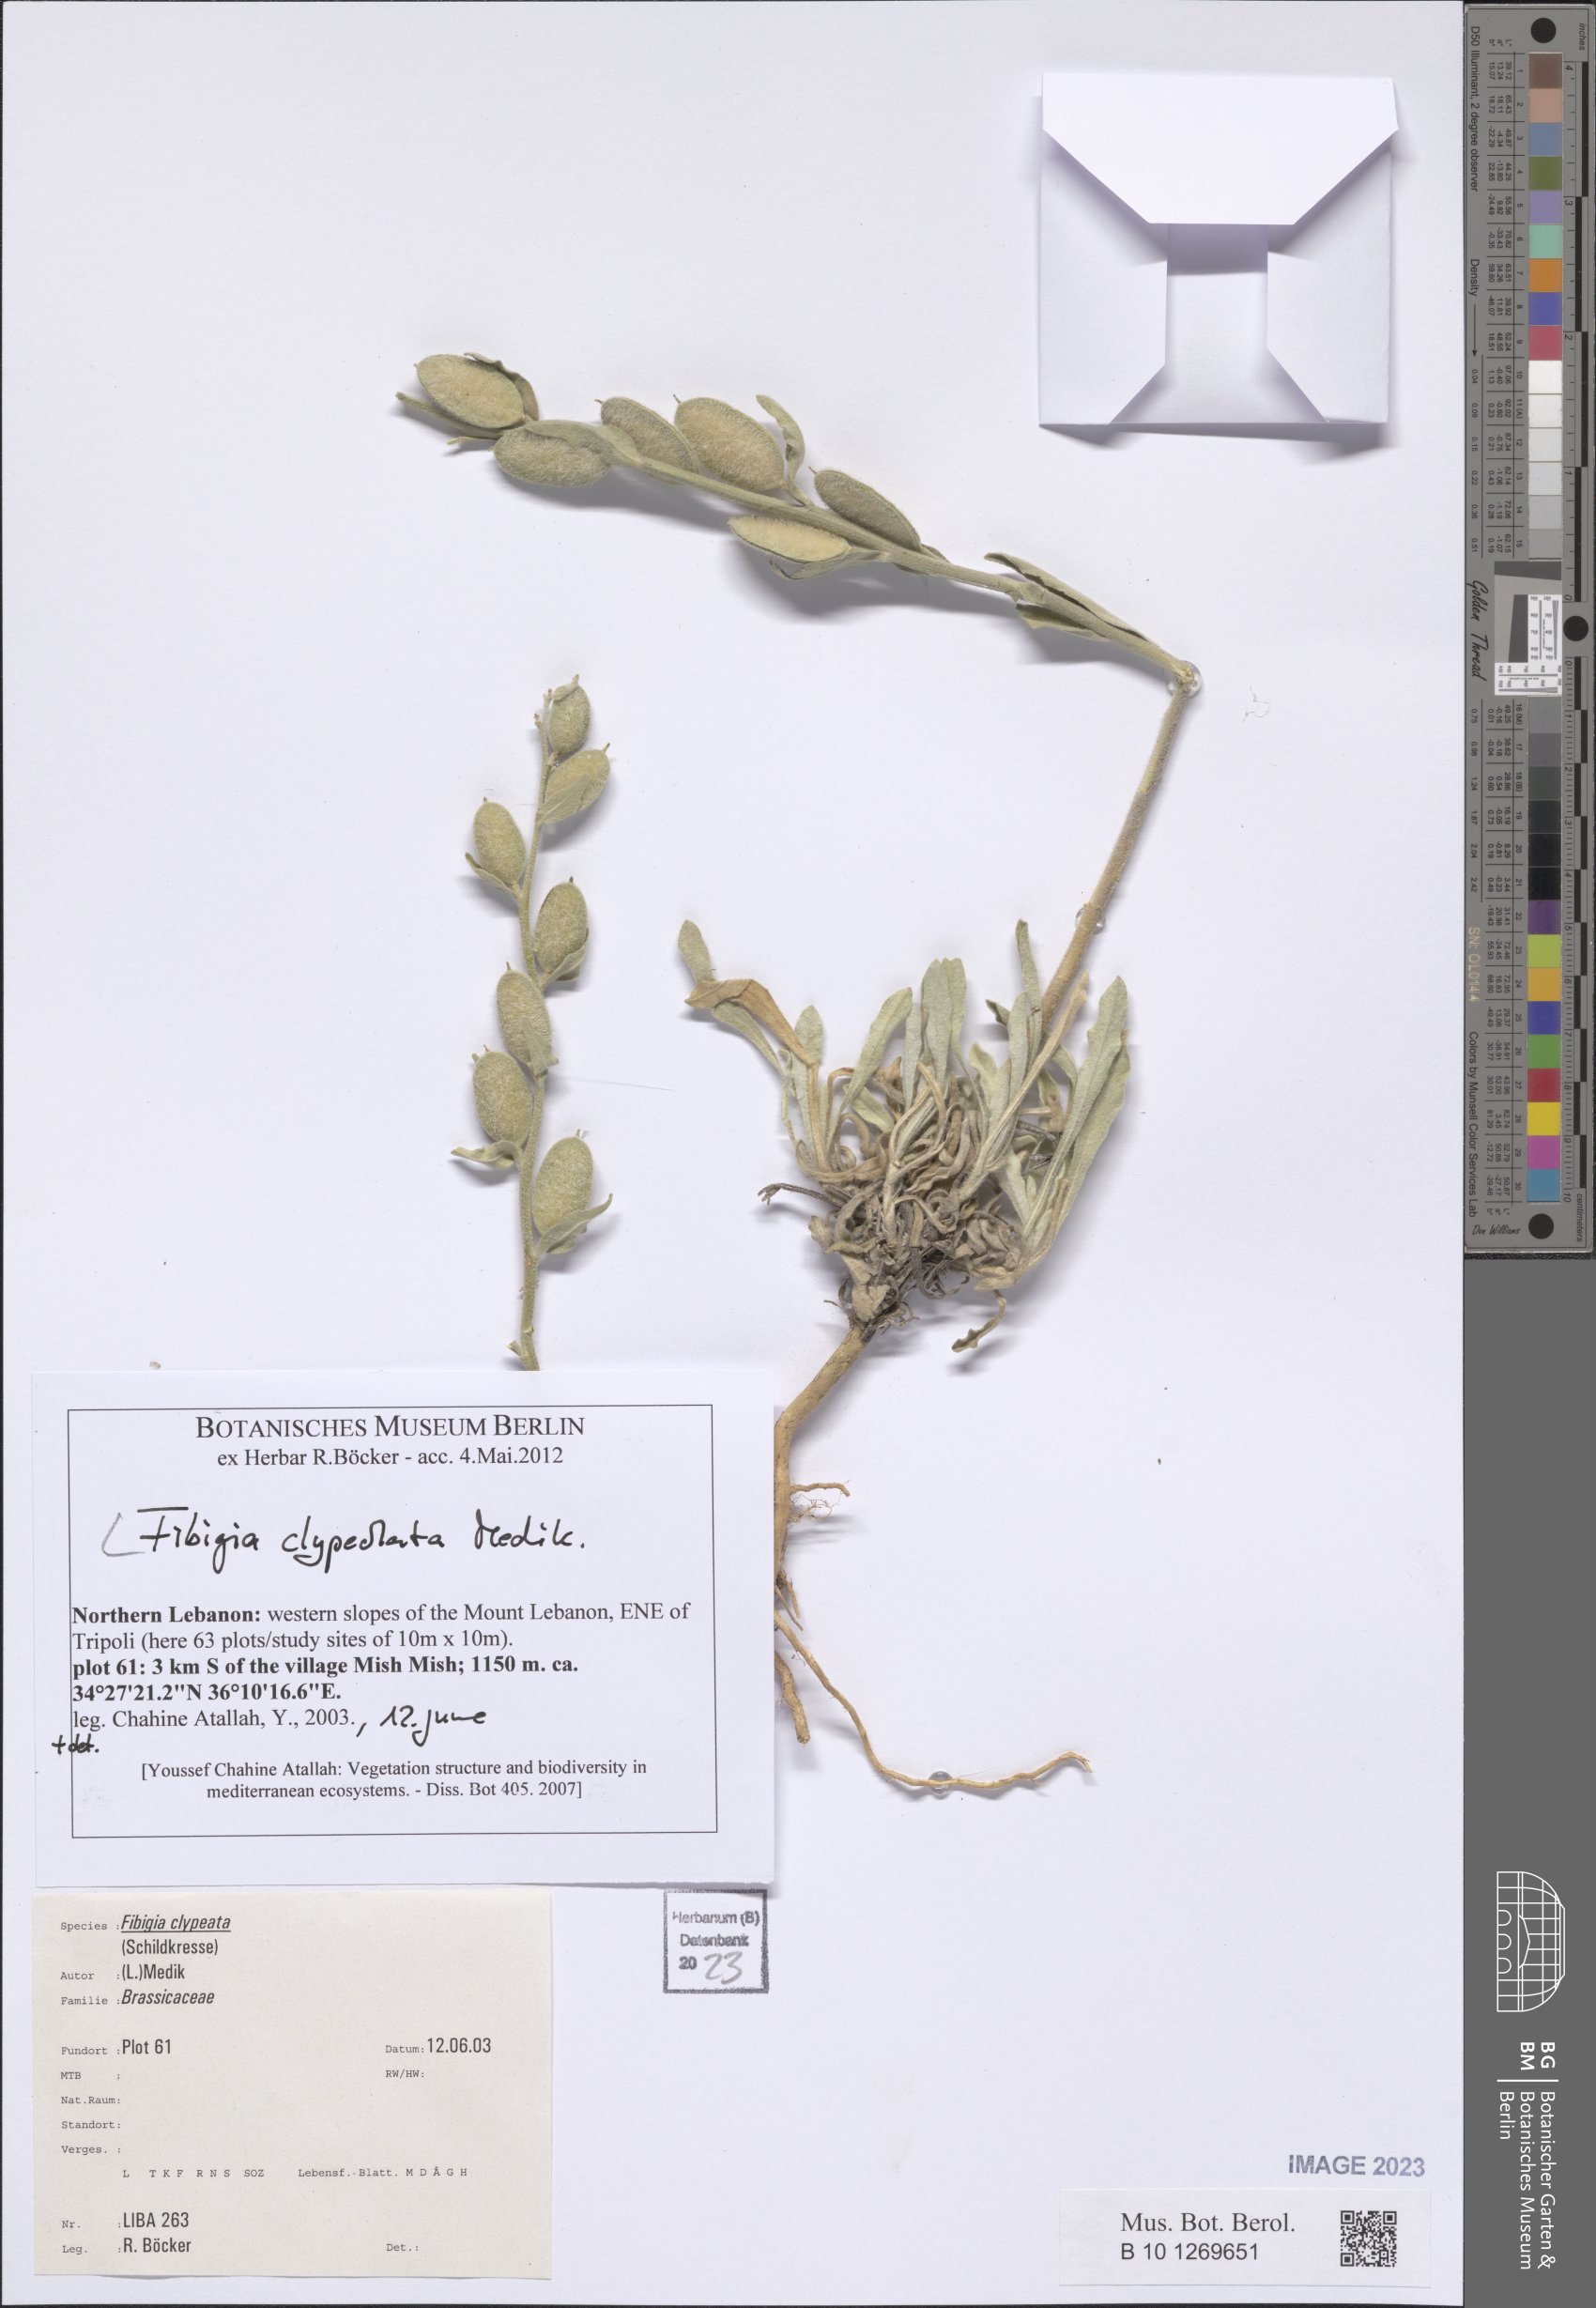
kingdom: Plantae
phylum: Tracheophyta
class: Magnoliopsida
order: Brassicales
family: Brassicaceae
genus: Fibigia
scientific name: Fibigia clypeata
